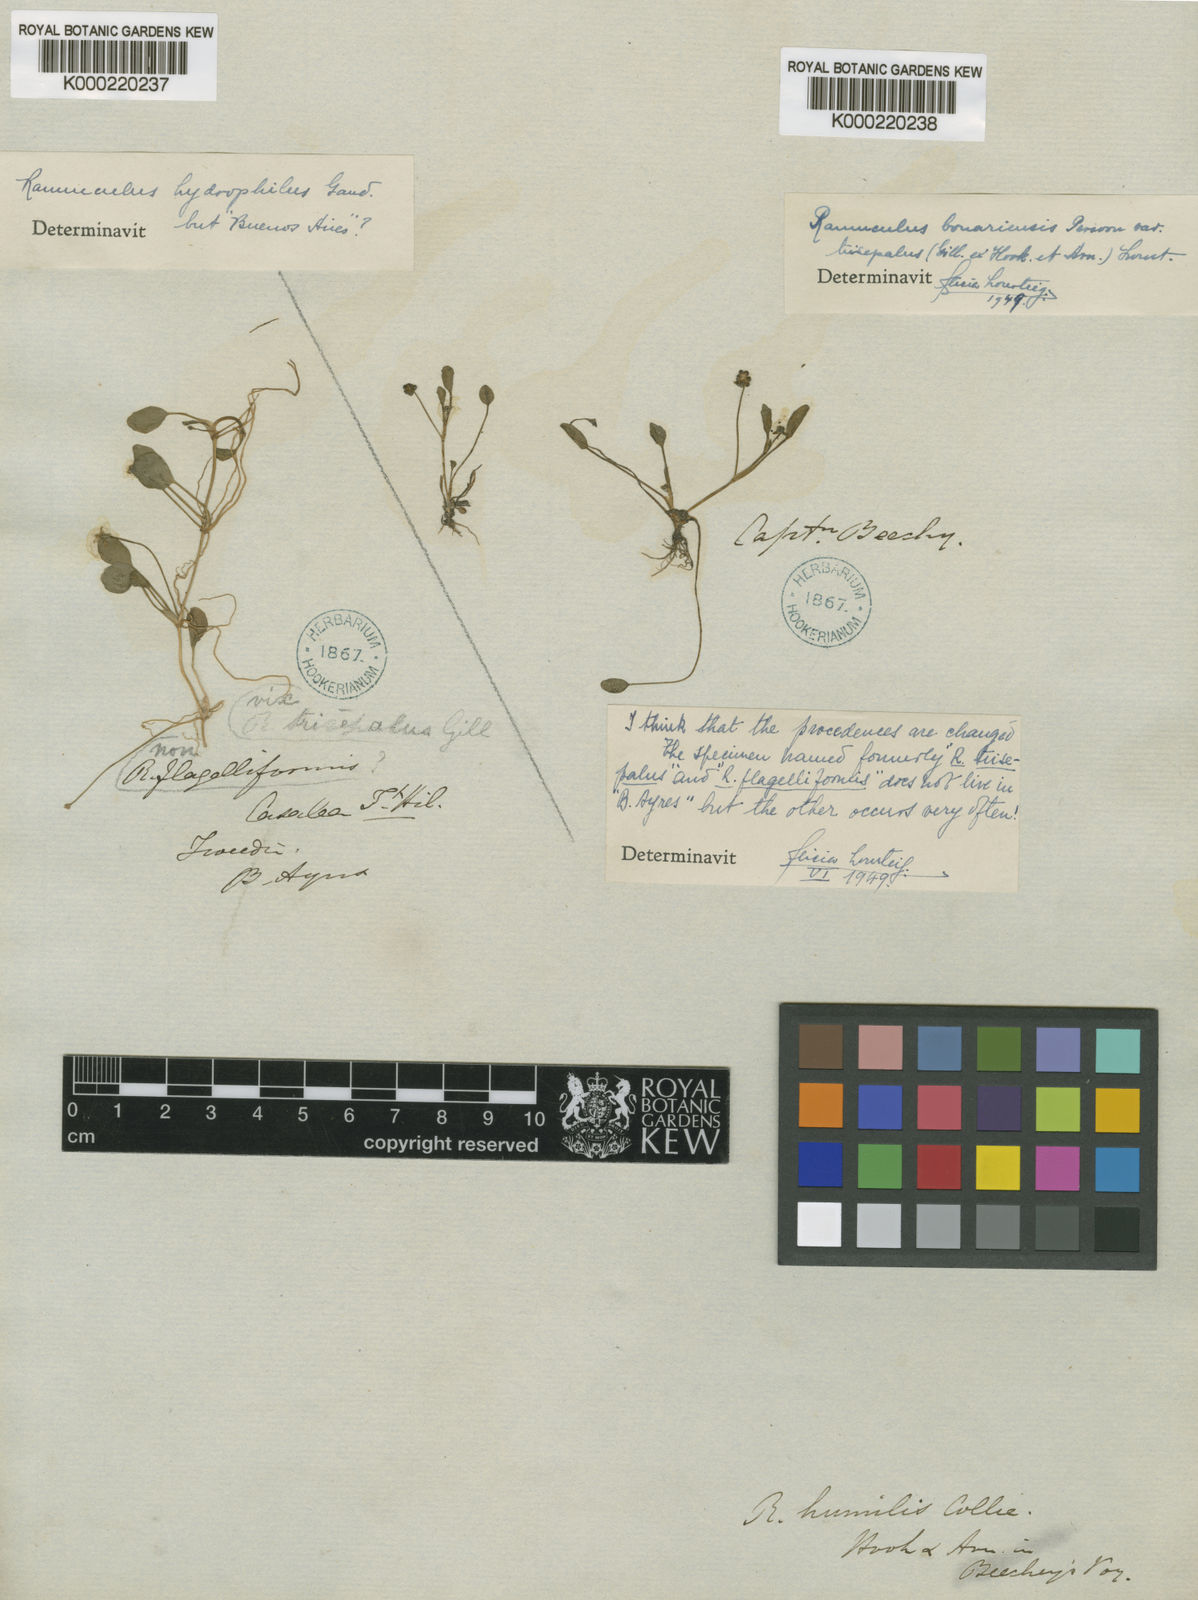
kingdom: Plantae
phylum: Tracheophyta
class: Magnoliopsida
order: Ranunculales
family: Ranunculaceae
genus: Ranunculus
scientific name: Ranunculus hydrophilus
